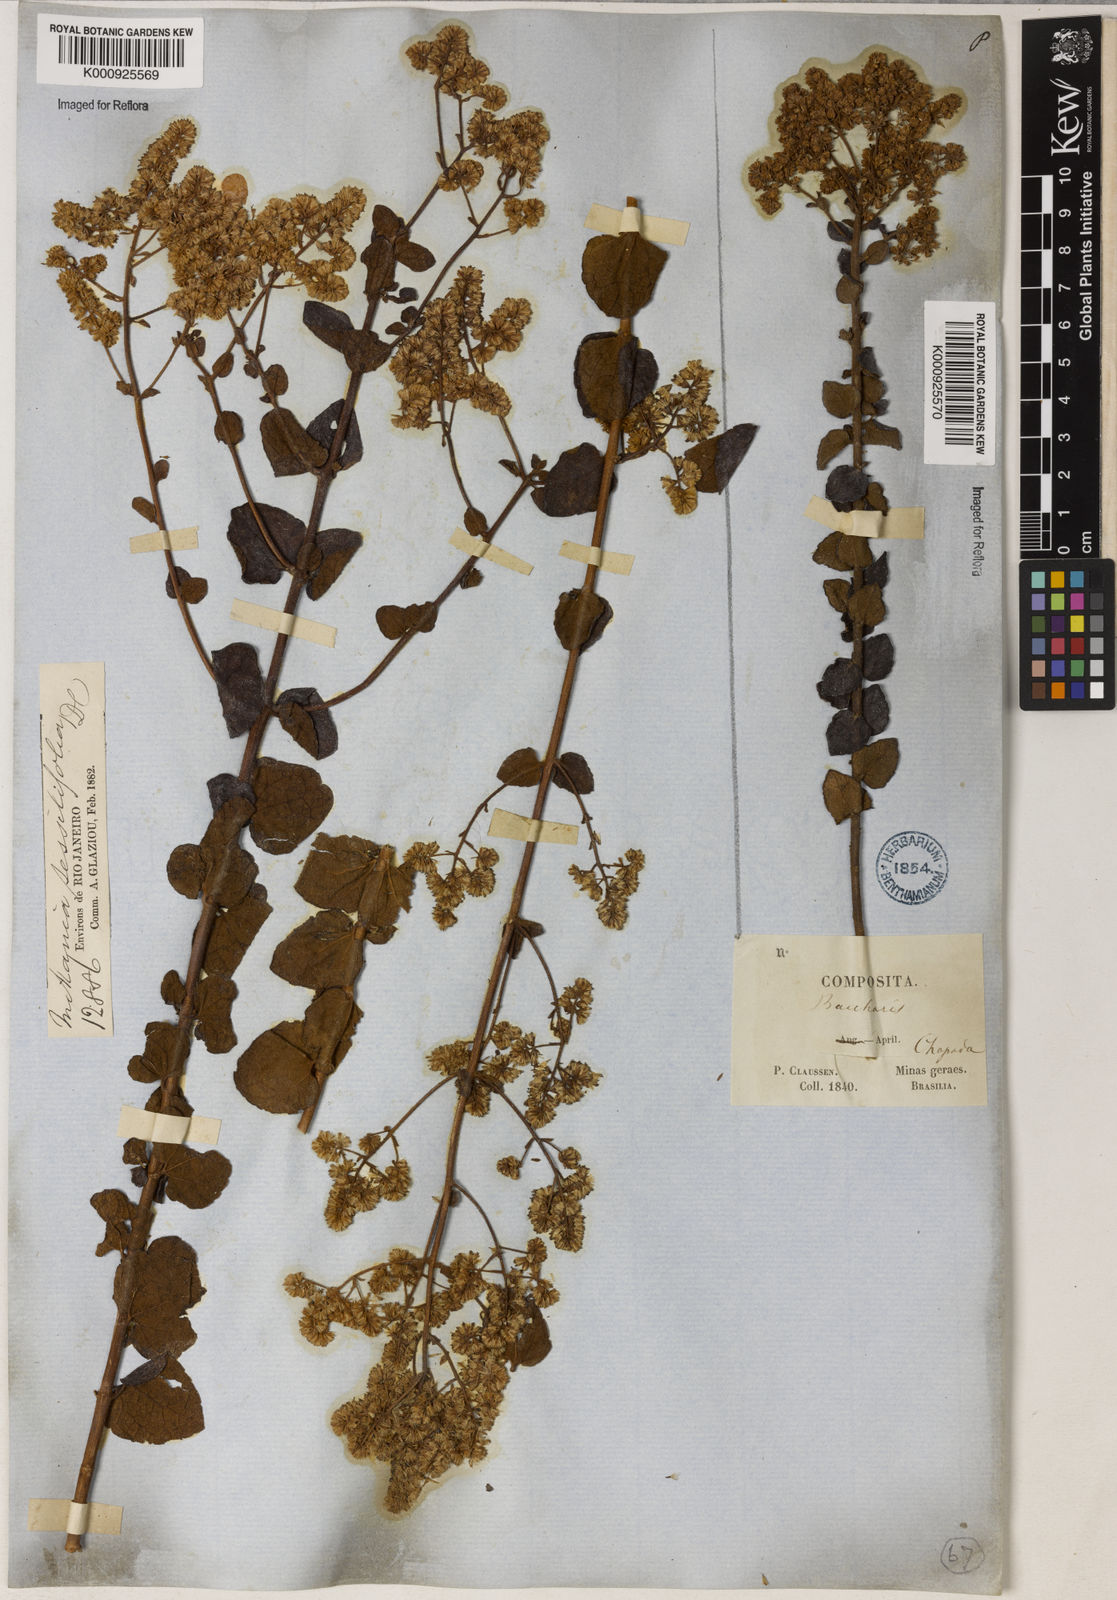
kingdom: Plantae
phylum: Tracheophyta
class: Magnoliopsida
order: Asterales
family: Asteraceae
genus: Mikania
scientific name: Mikania sessilifolia
